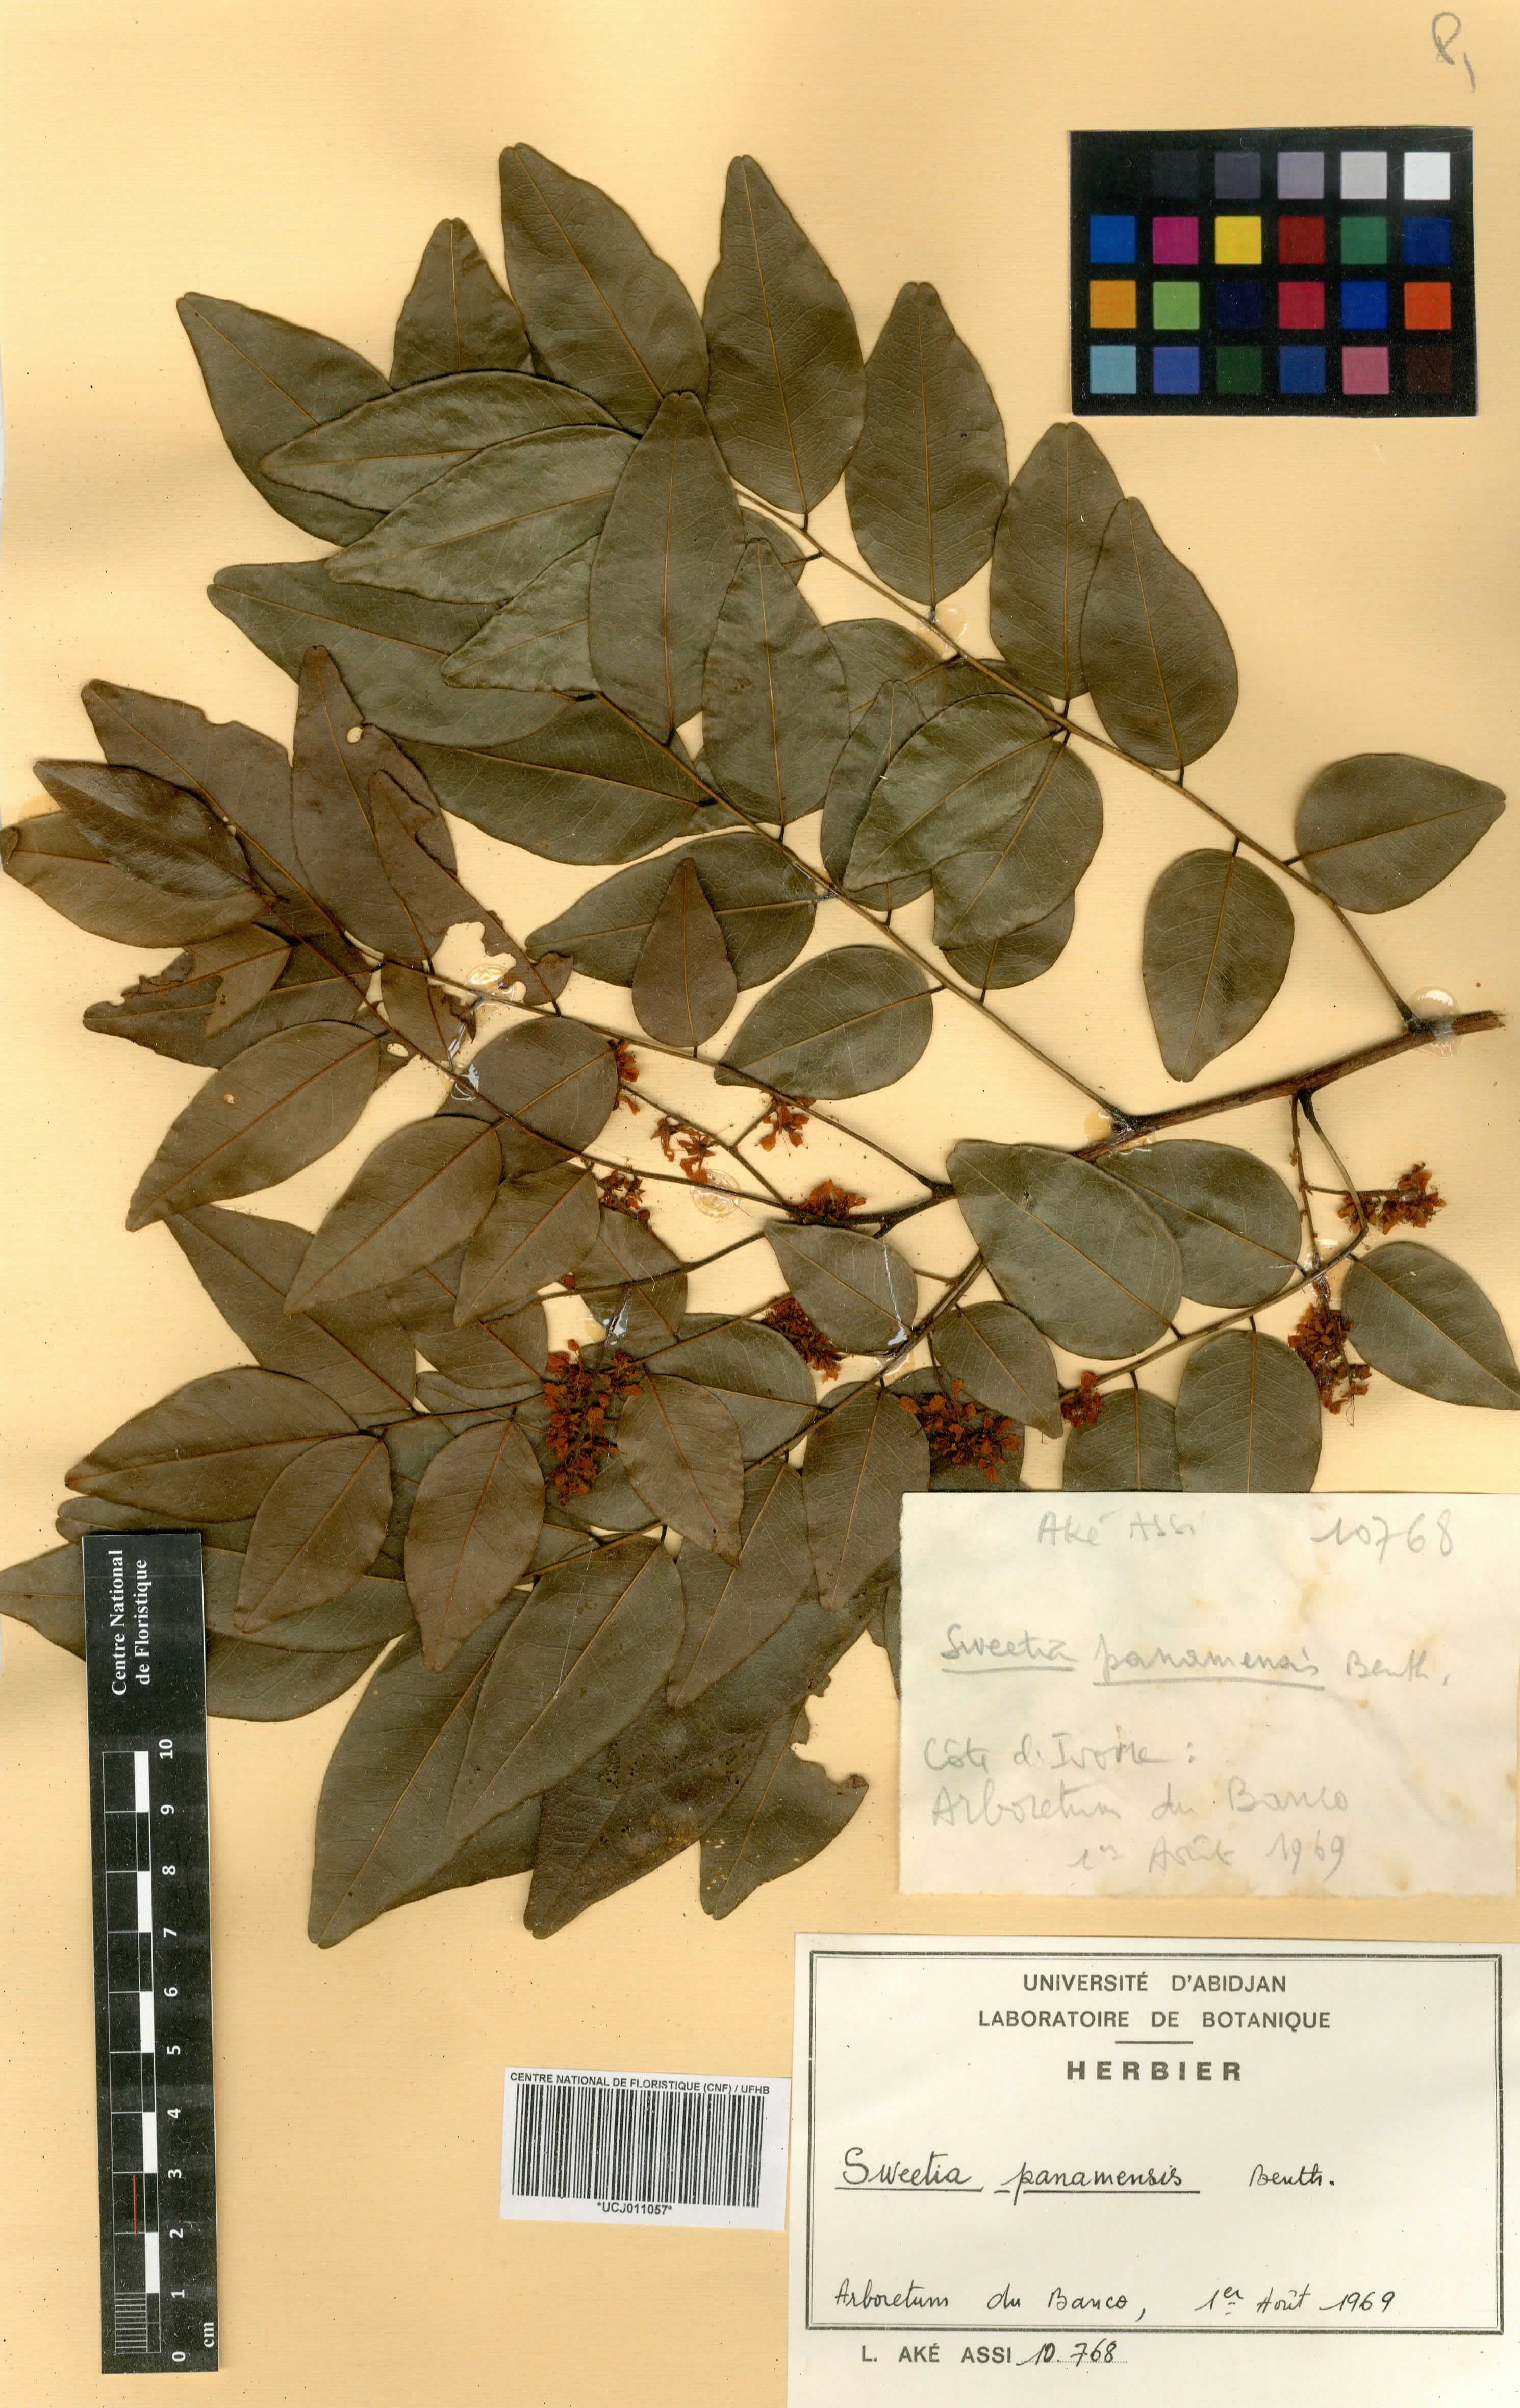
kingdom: Plantae
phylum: Tracheophyta
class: Magnoliopsida
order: Fabales
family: Fabaceae
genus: Leptolobium
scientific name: Leptolobium panamense
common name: Billy webb
